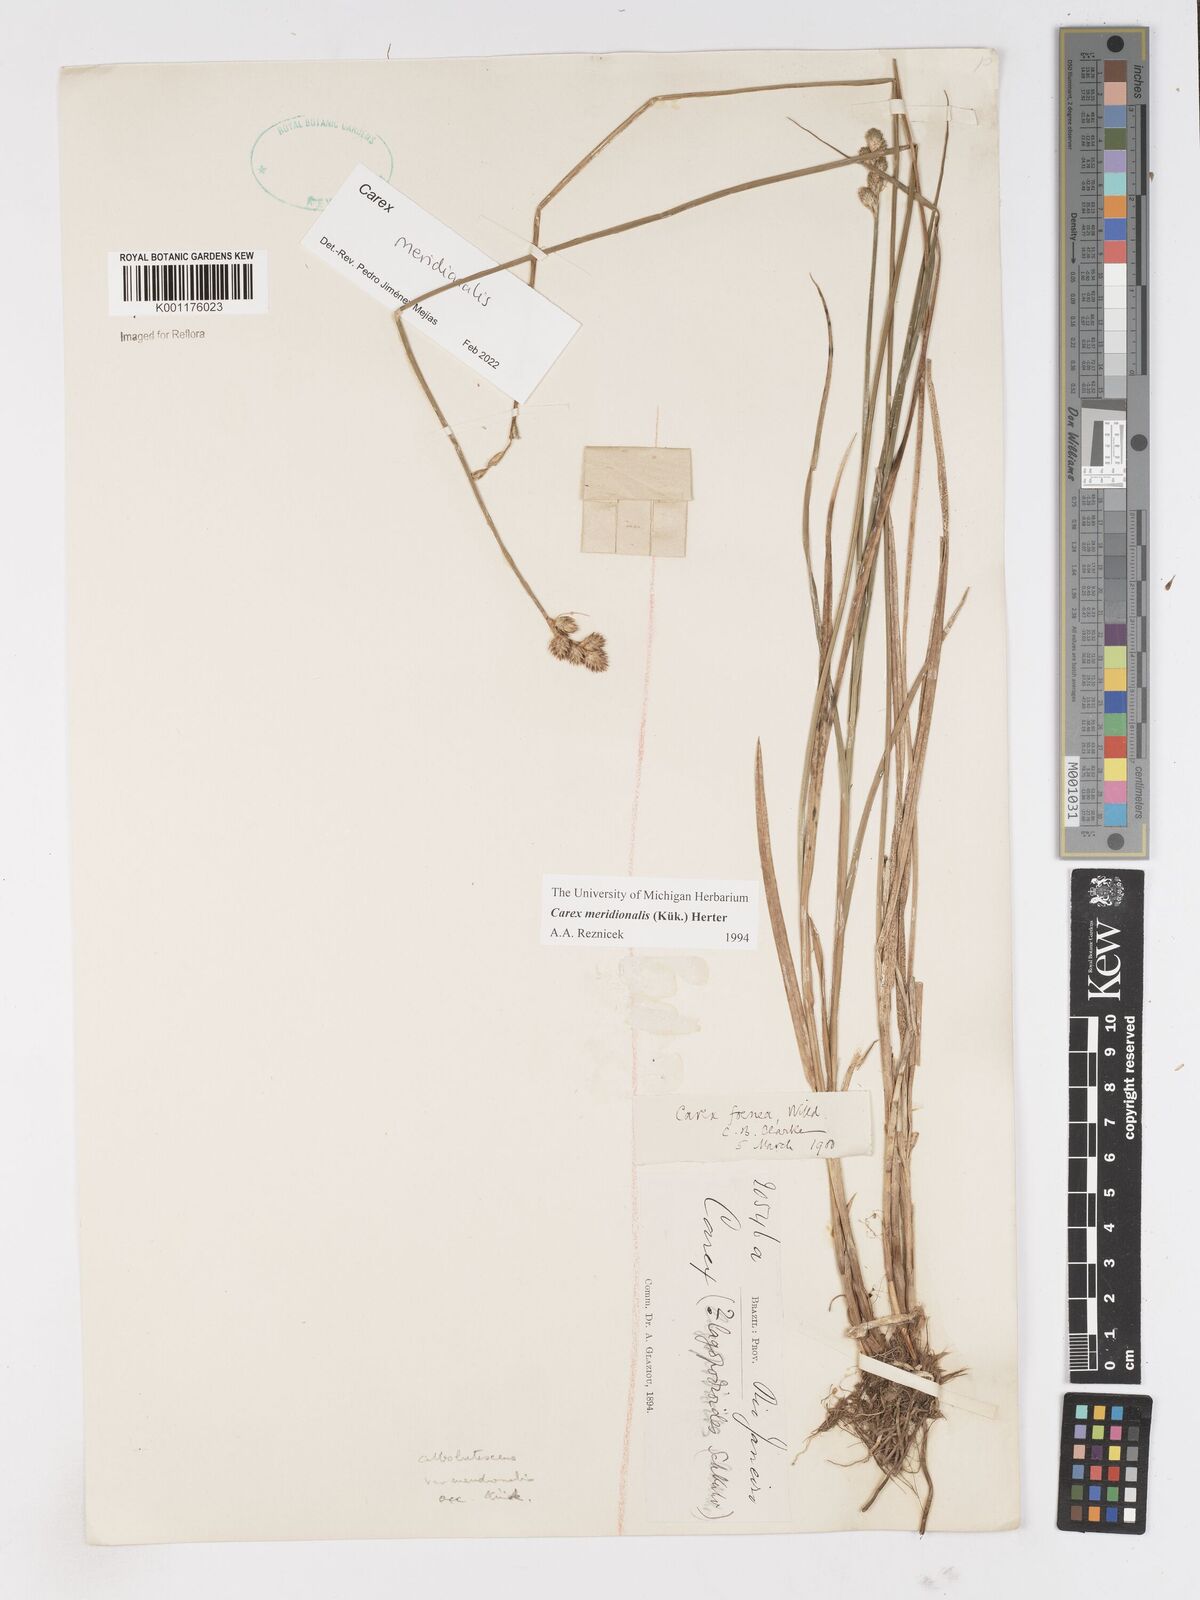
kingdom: Plantae
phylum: Tracheophyta
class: Liliopsida
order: Poales
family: Cyperaceae
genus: Carex
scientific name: Carex meridionalis
